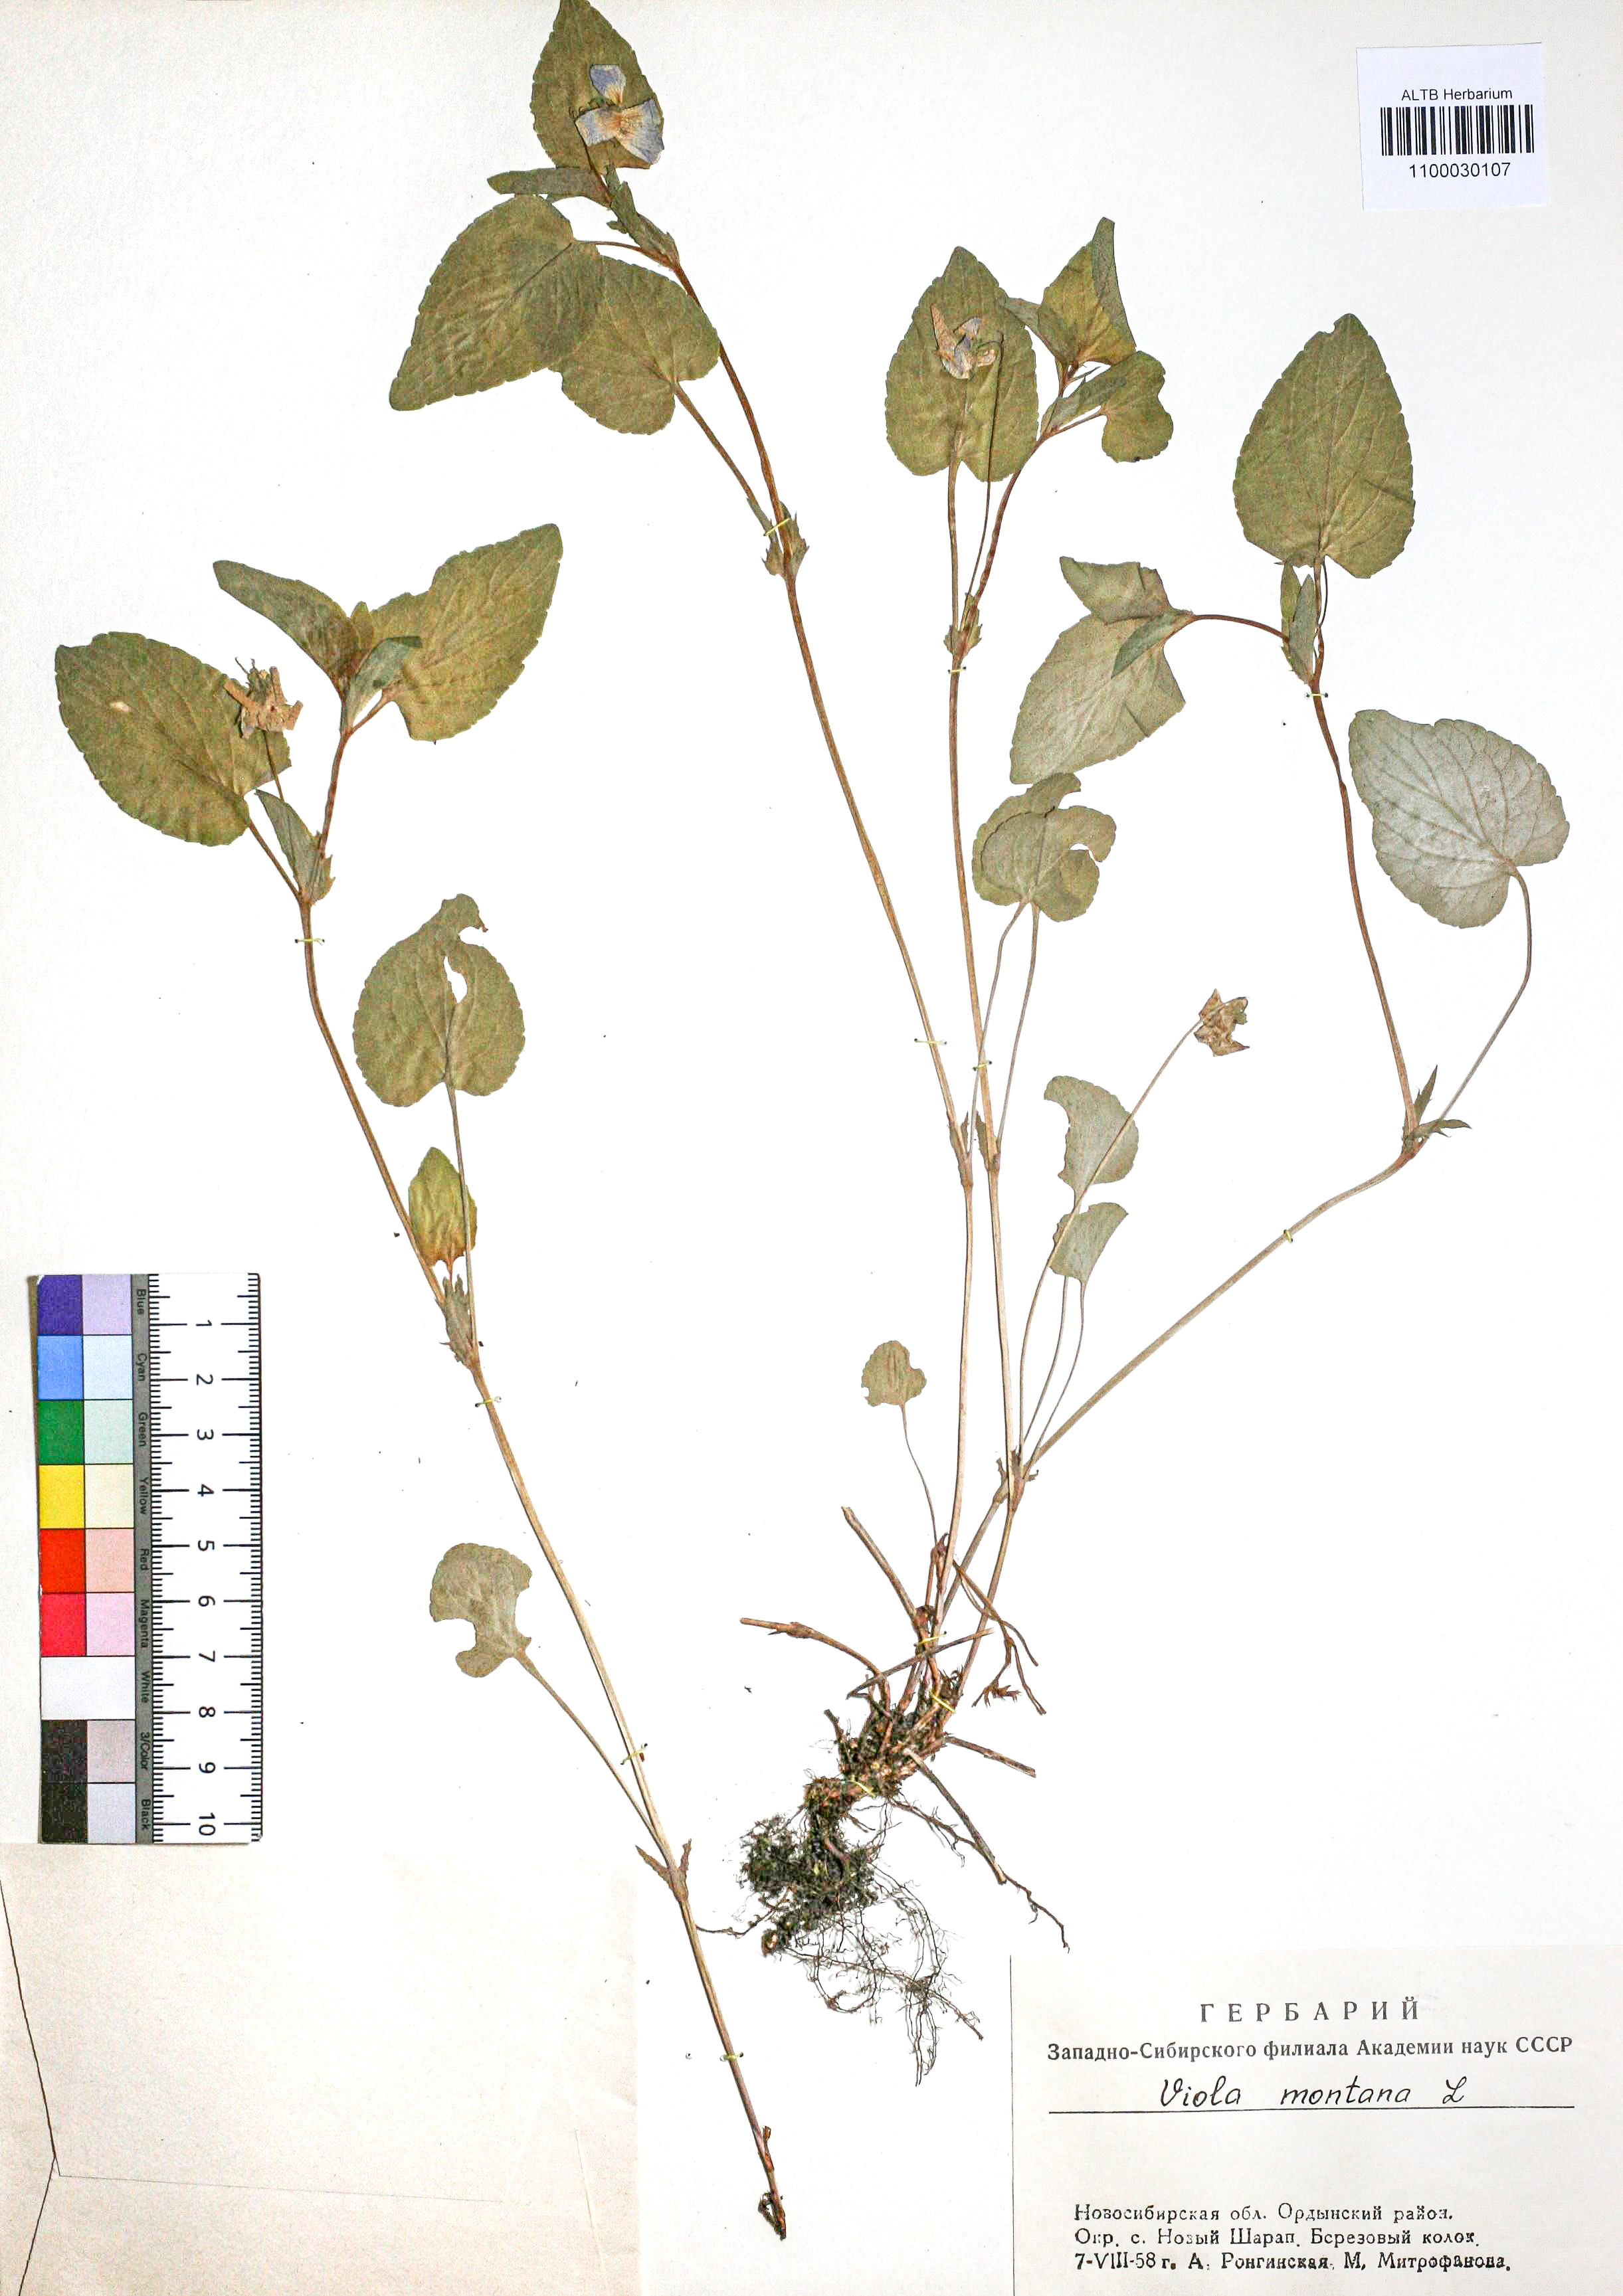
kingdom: Plantae
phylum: Tracheophyta
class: Magnoliopsida
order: Malpighiales
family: Violaceae
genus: Viola
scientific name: Viola ruppii
